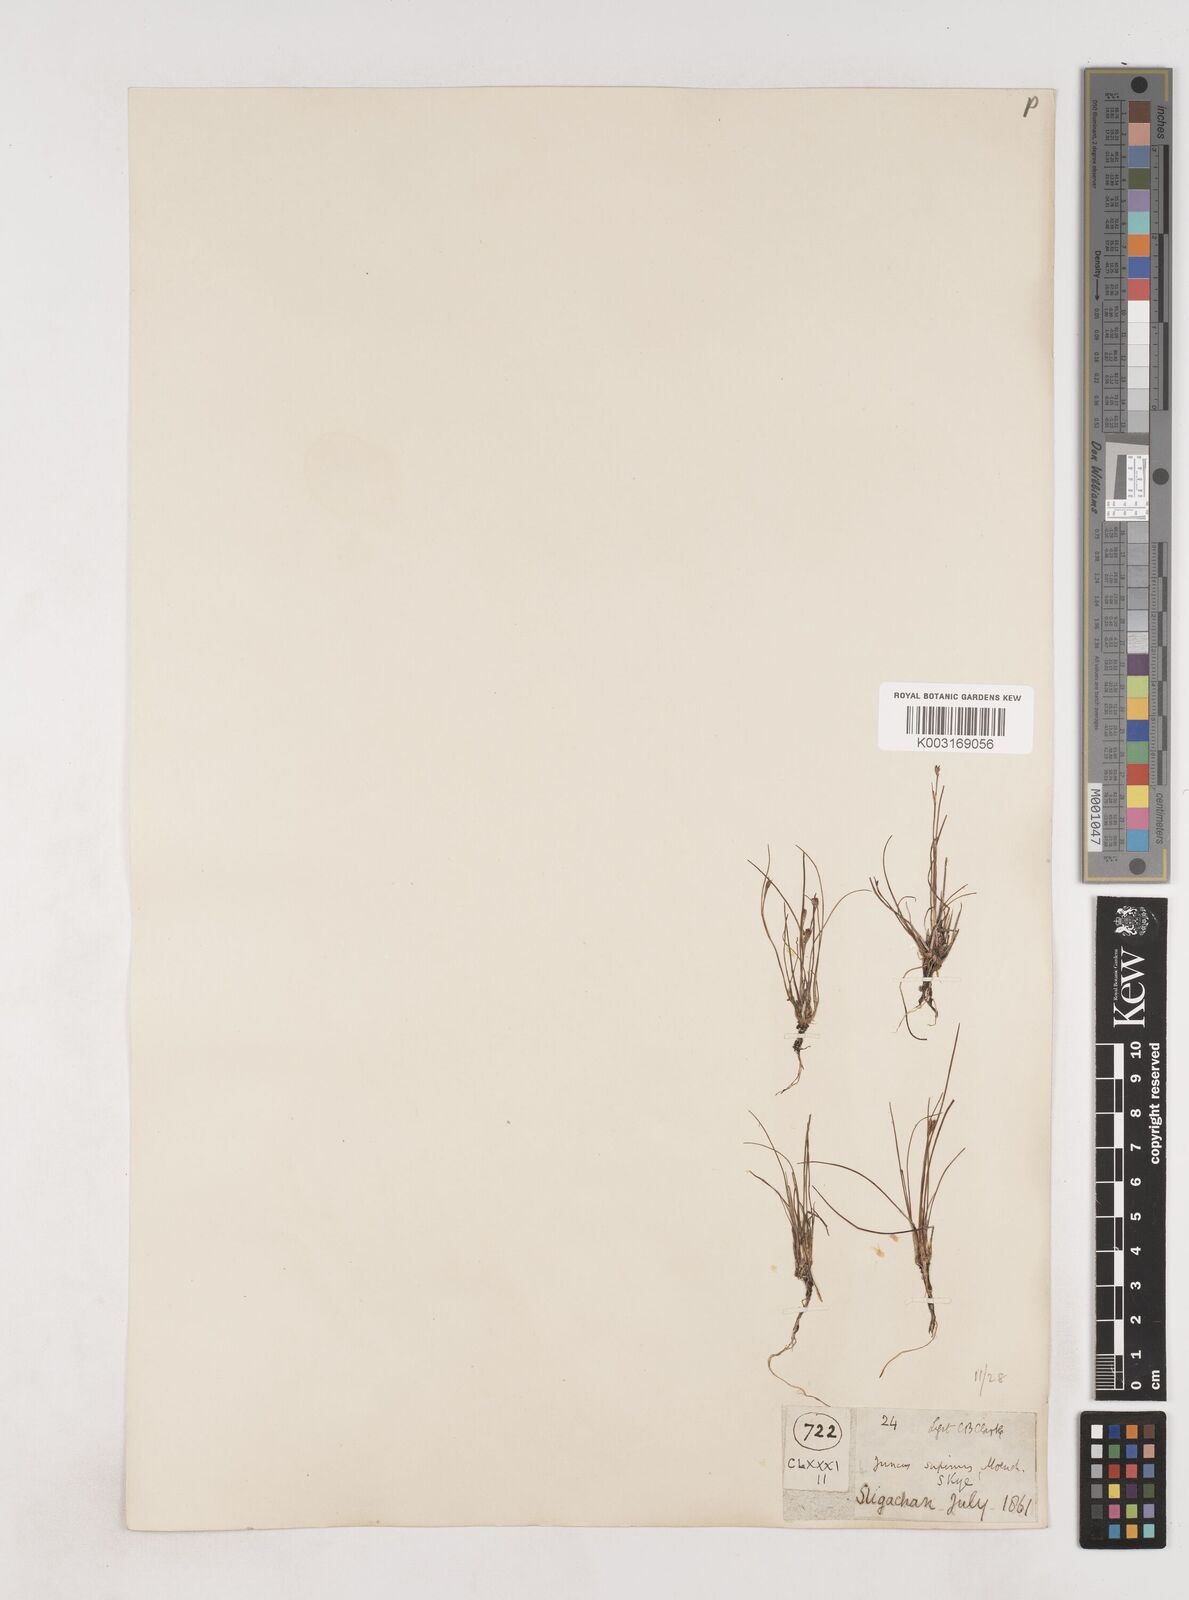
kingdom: Plantae
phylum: Tracheophyta
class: Liliopsida
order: Poales
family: Juncaceae
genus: Juncus
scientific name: Juncus bulbosus
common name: Bulbous rush
